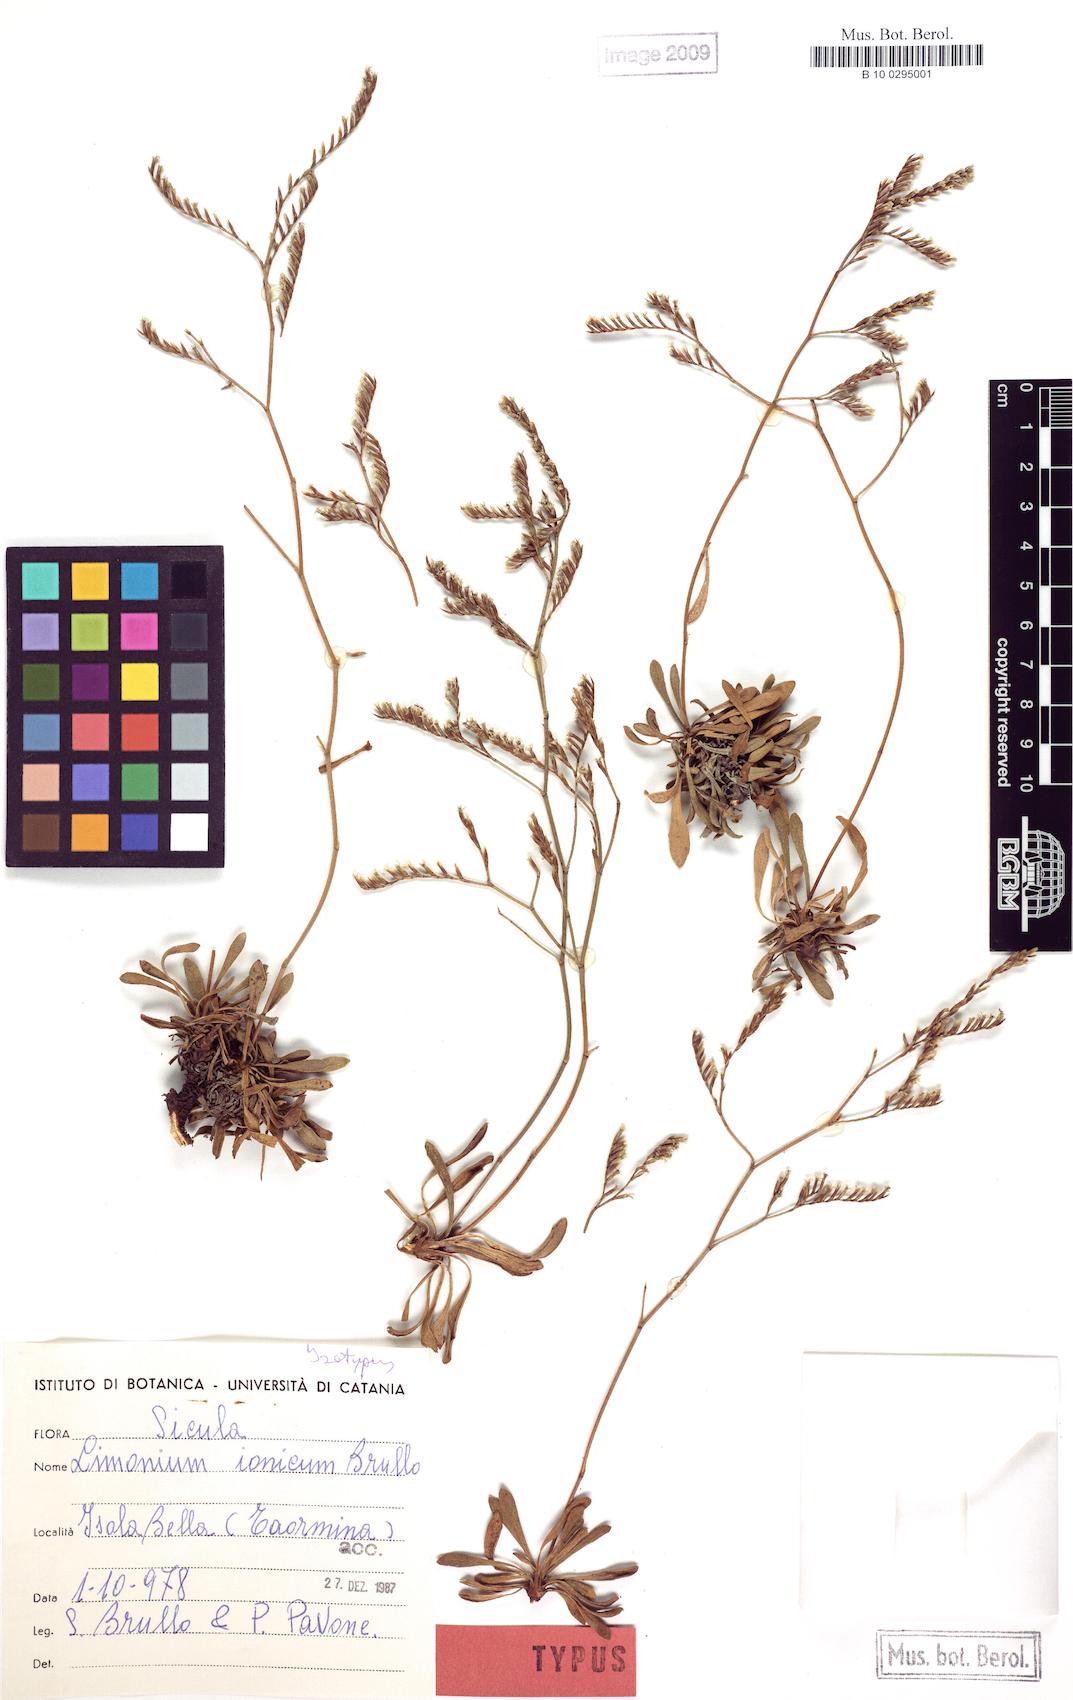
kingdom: Plantae
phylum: Tracheophyta
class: Magnoliopsida
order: Caryophyllales
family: Plumbaginaceae
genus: Limonium
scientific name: Limonium ionicum
